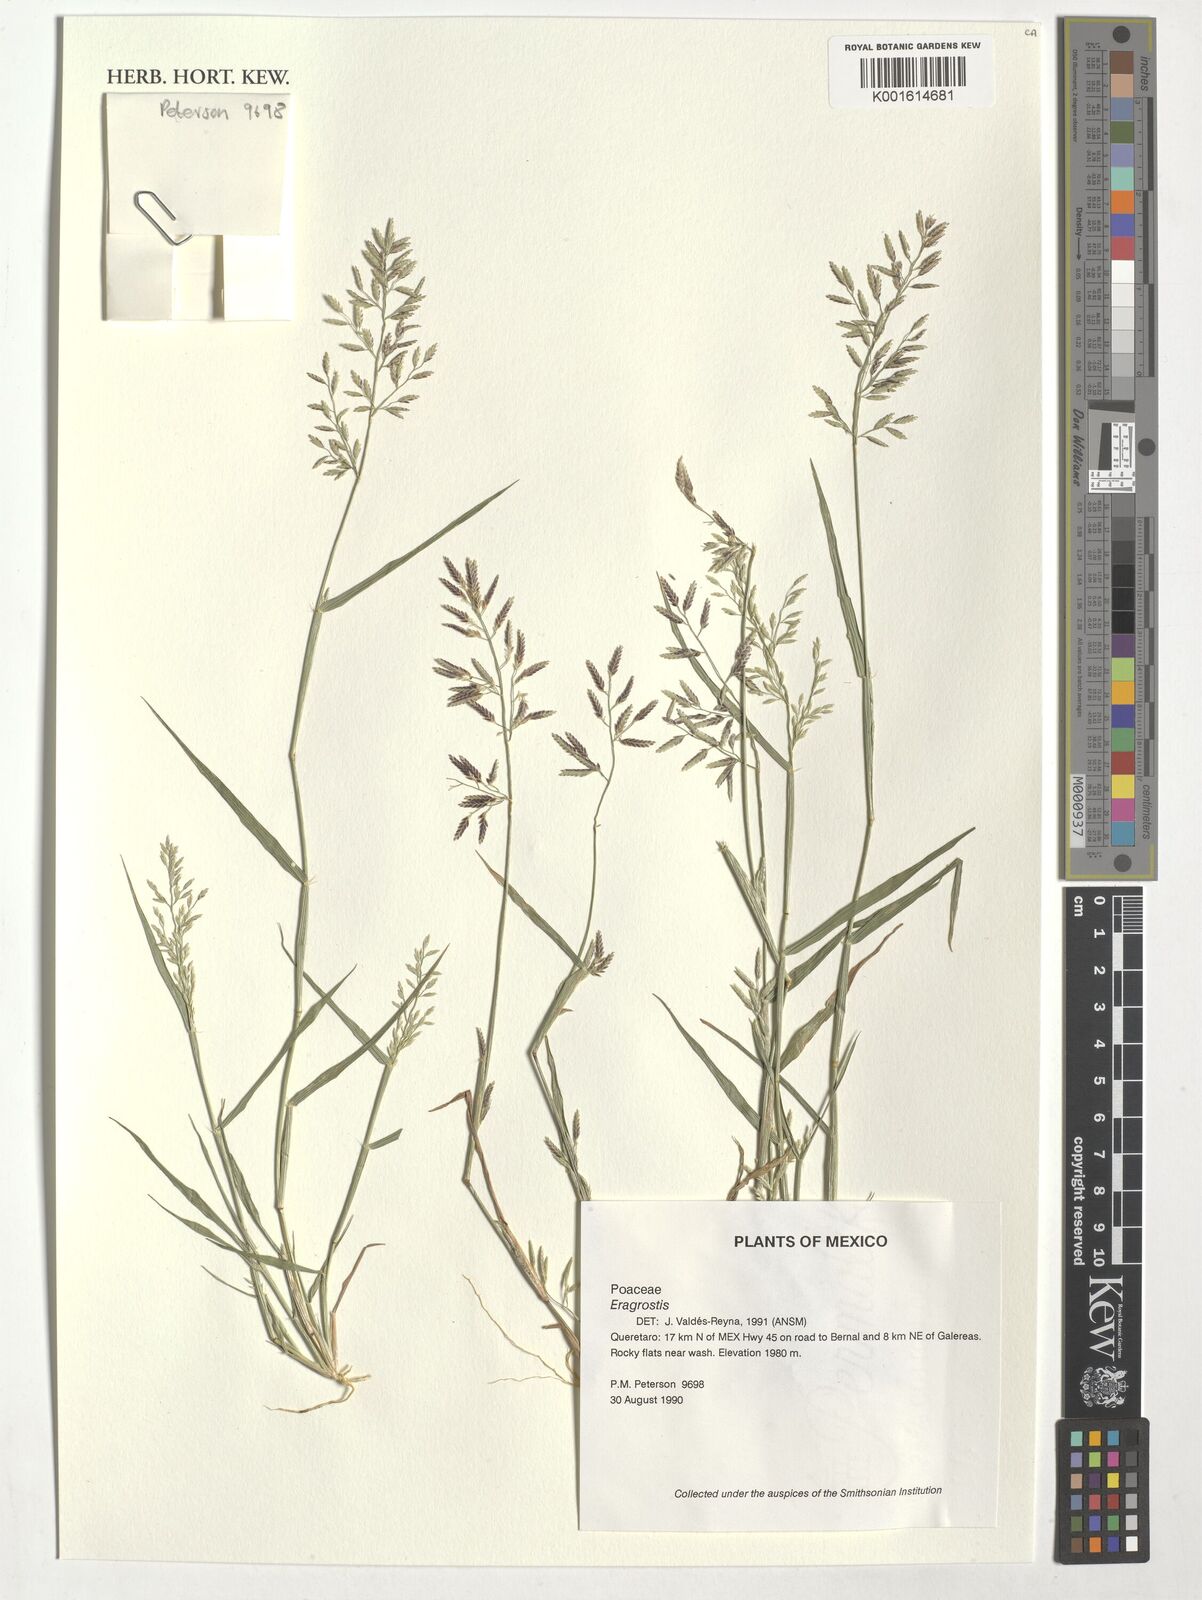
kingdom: Plantae
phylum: Tracheophyta
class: Liliopsida
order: Poales
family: Poaceae
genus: Eragrostis
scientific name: Eragrostis
